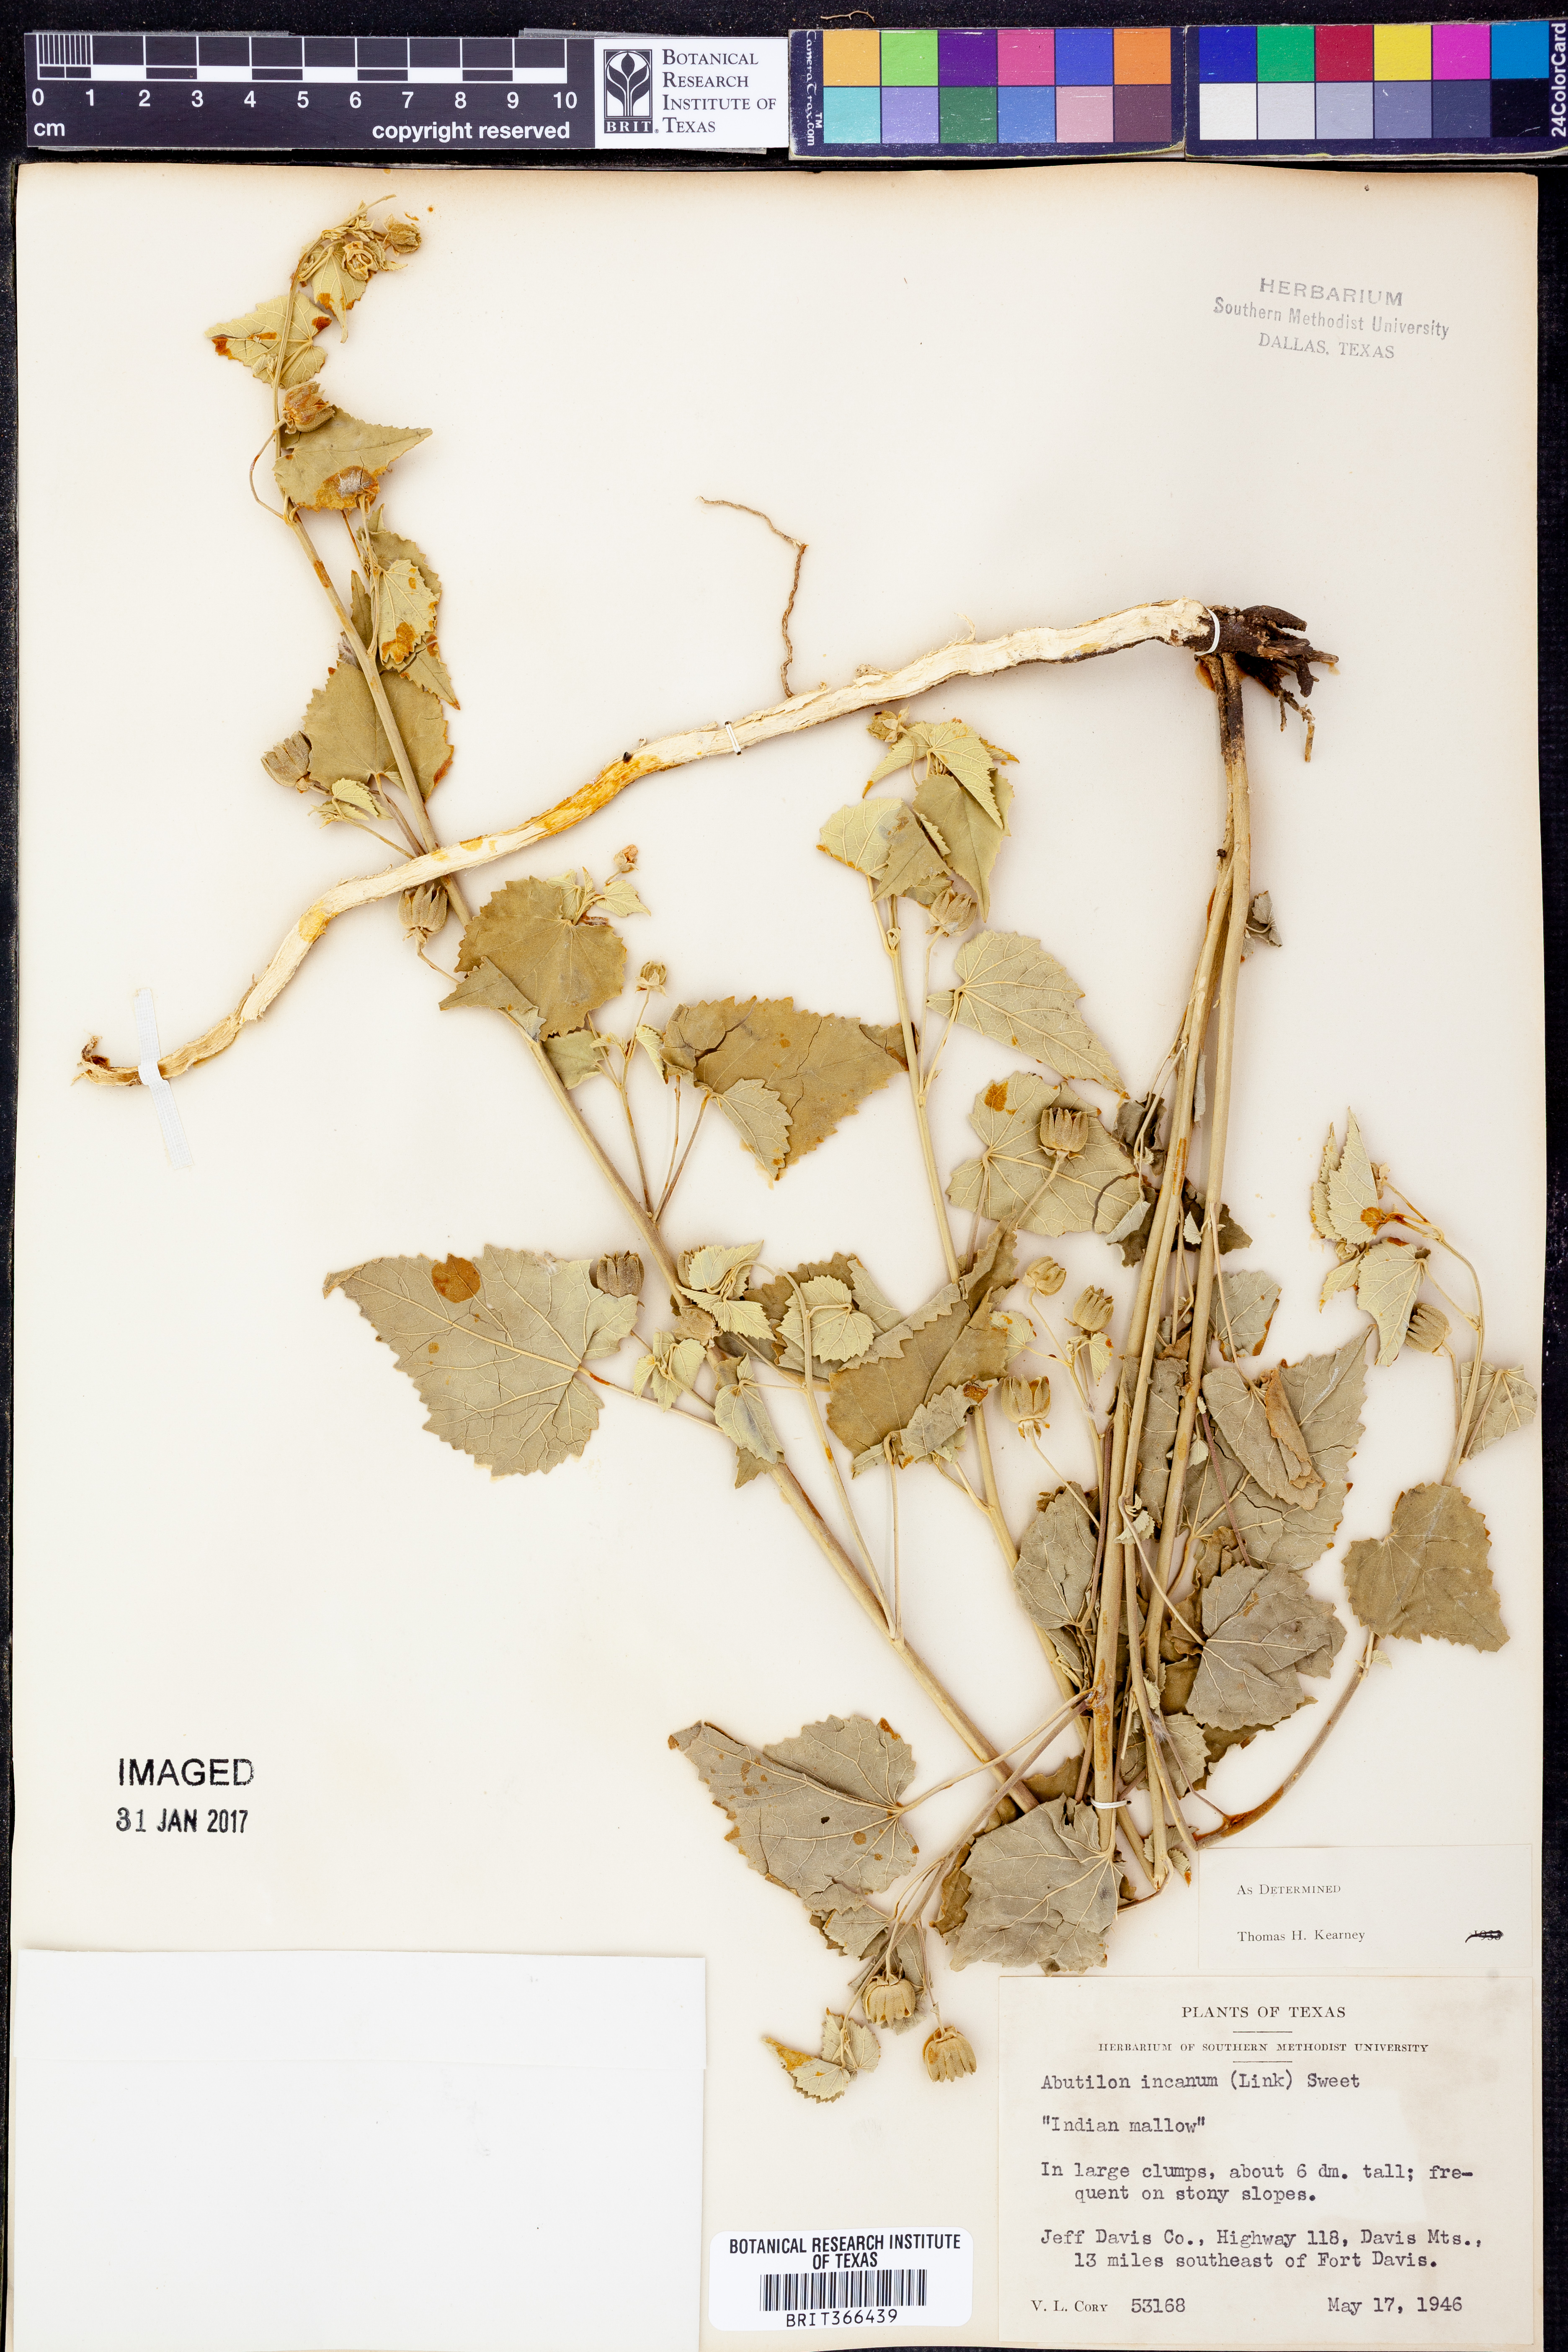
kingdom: Plantae
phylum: Tracheophyta
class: Magnoliopsida
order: Malvales
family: Malvaceae
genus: Abutilon
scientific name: Abutilon incanum
